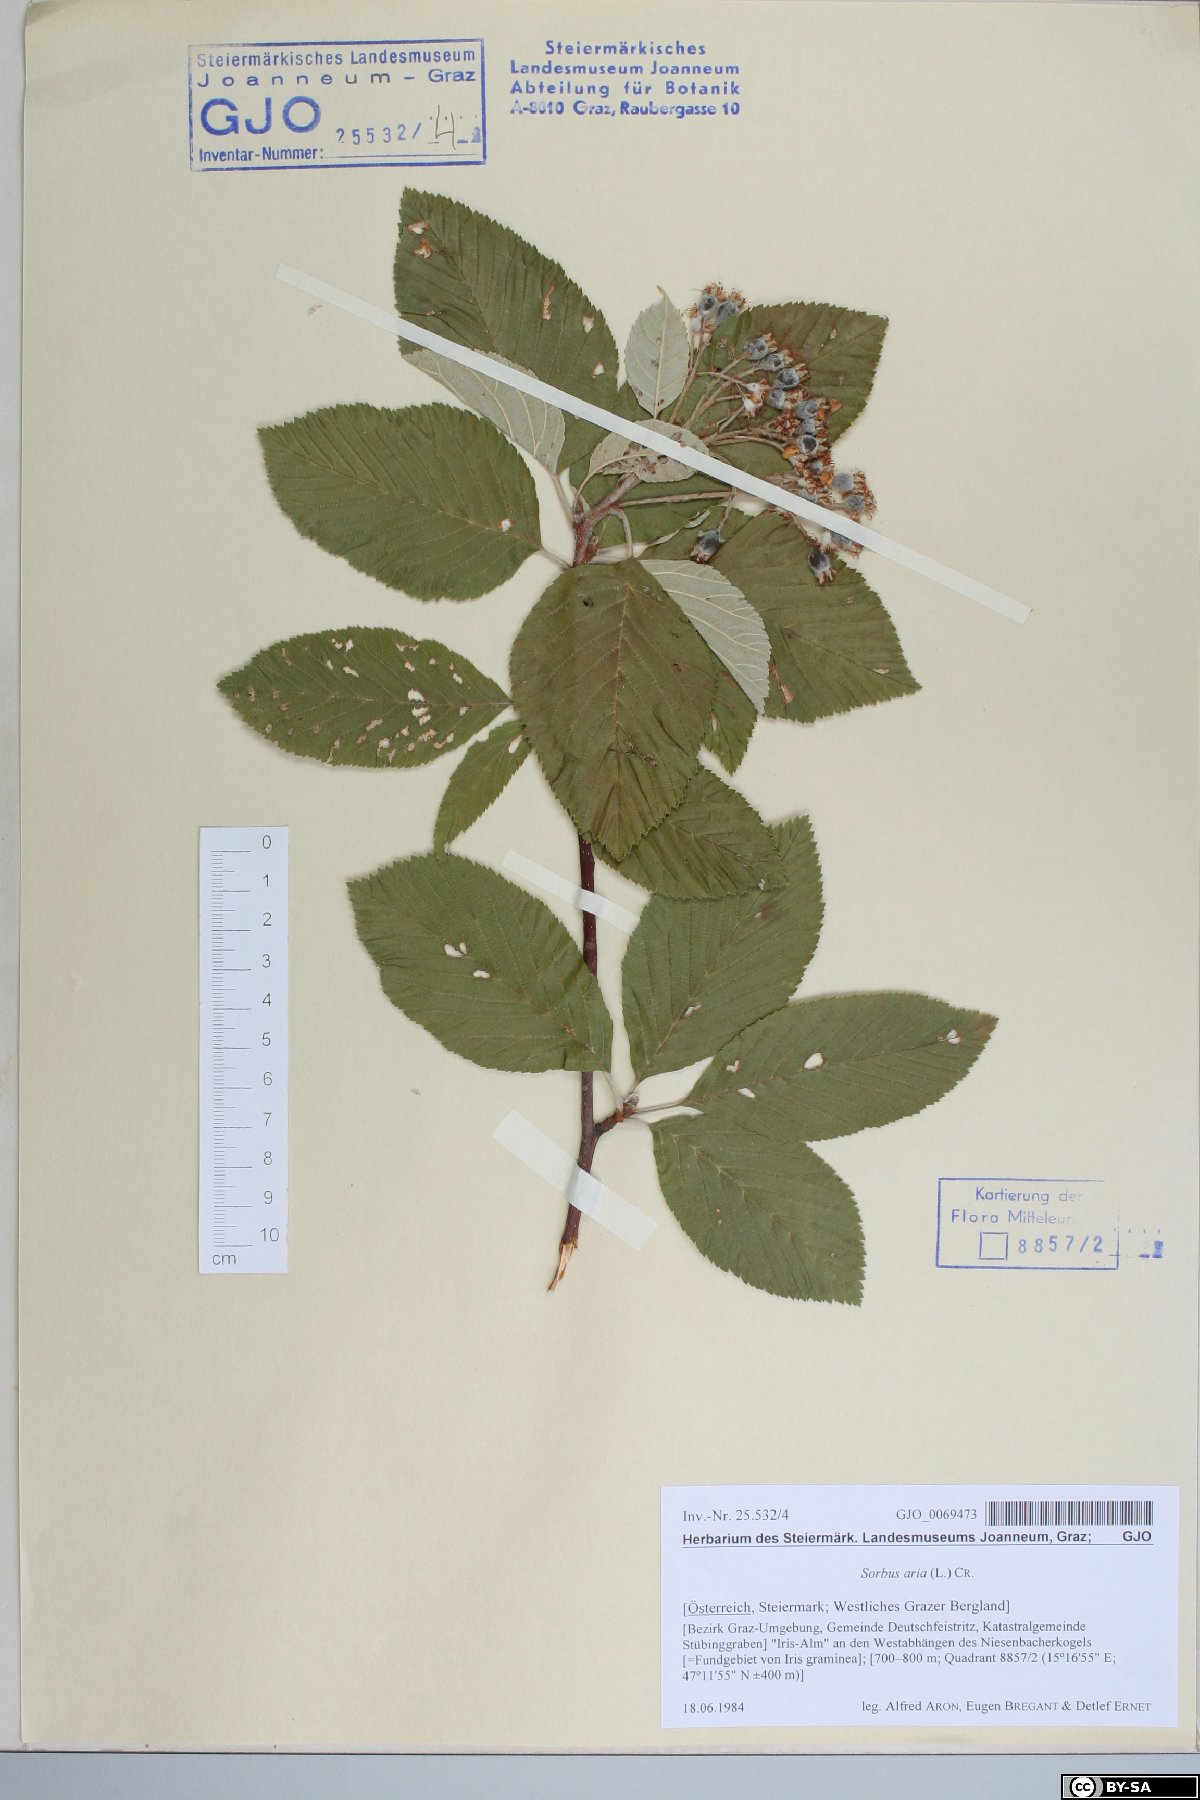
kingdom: Plantae
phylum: Tracheophyta
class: Magnoliopsida
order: Rosales
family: Rosaceae
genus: Aria
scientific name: Aria edulis
